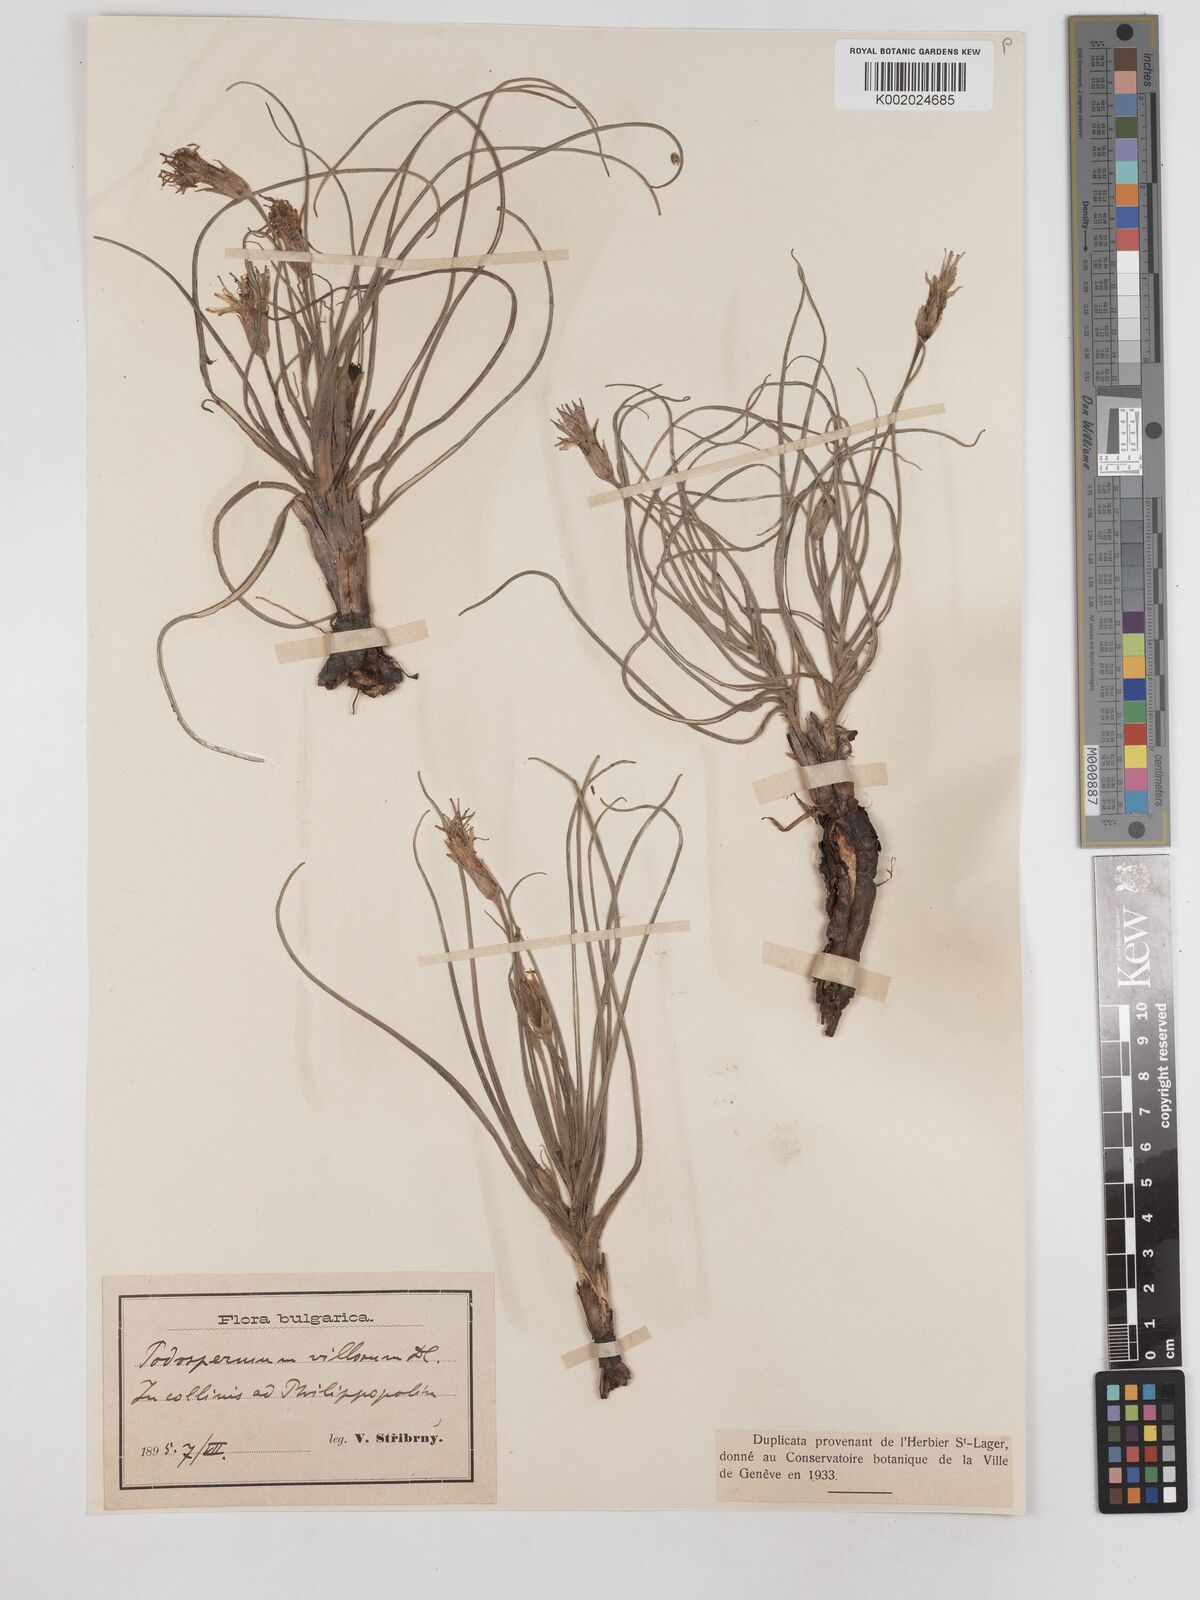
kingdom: Plantae
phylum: Tracheophyta
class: Magnoliopsida
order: Asterales
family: Asteraceae
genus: Candollea
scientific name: Candollea mollis
